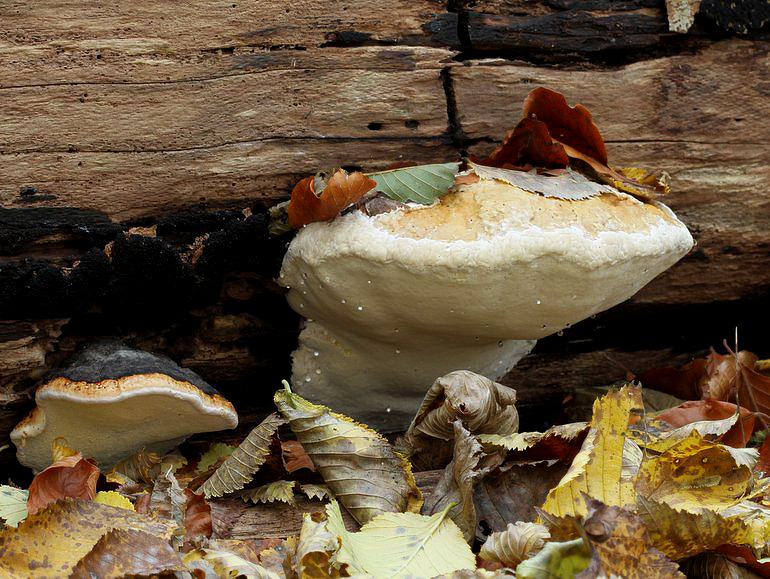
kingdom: Fungi
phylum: Basidiomycota
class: Agaricomycetes
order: Polyporales
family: Fomitopsidaceae
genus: Fomitopsis
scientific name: Fomitopsis pinicola
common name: randbæltet hovporesvamp
